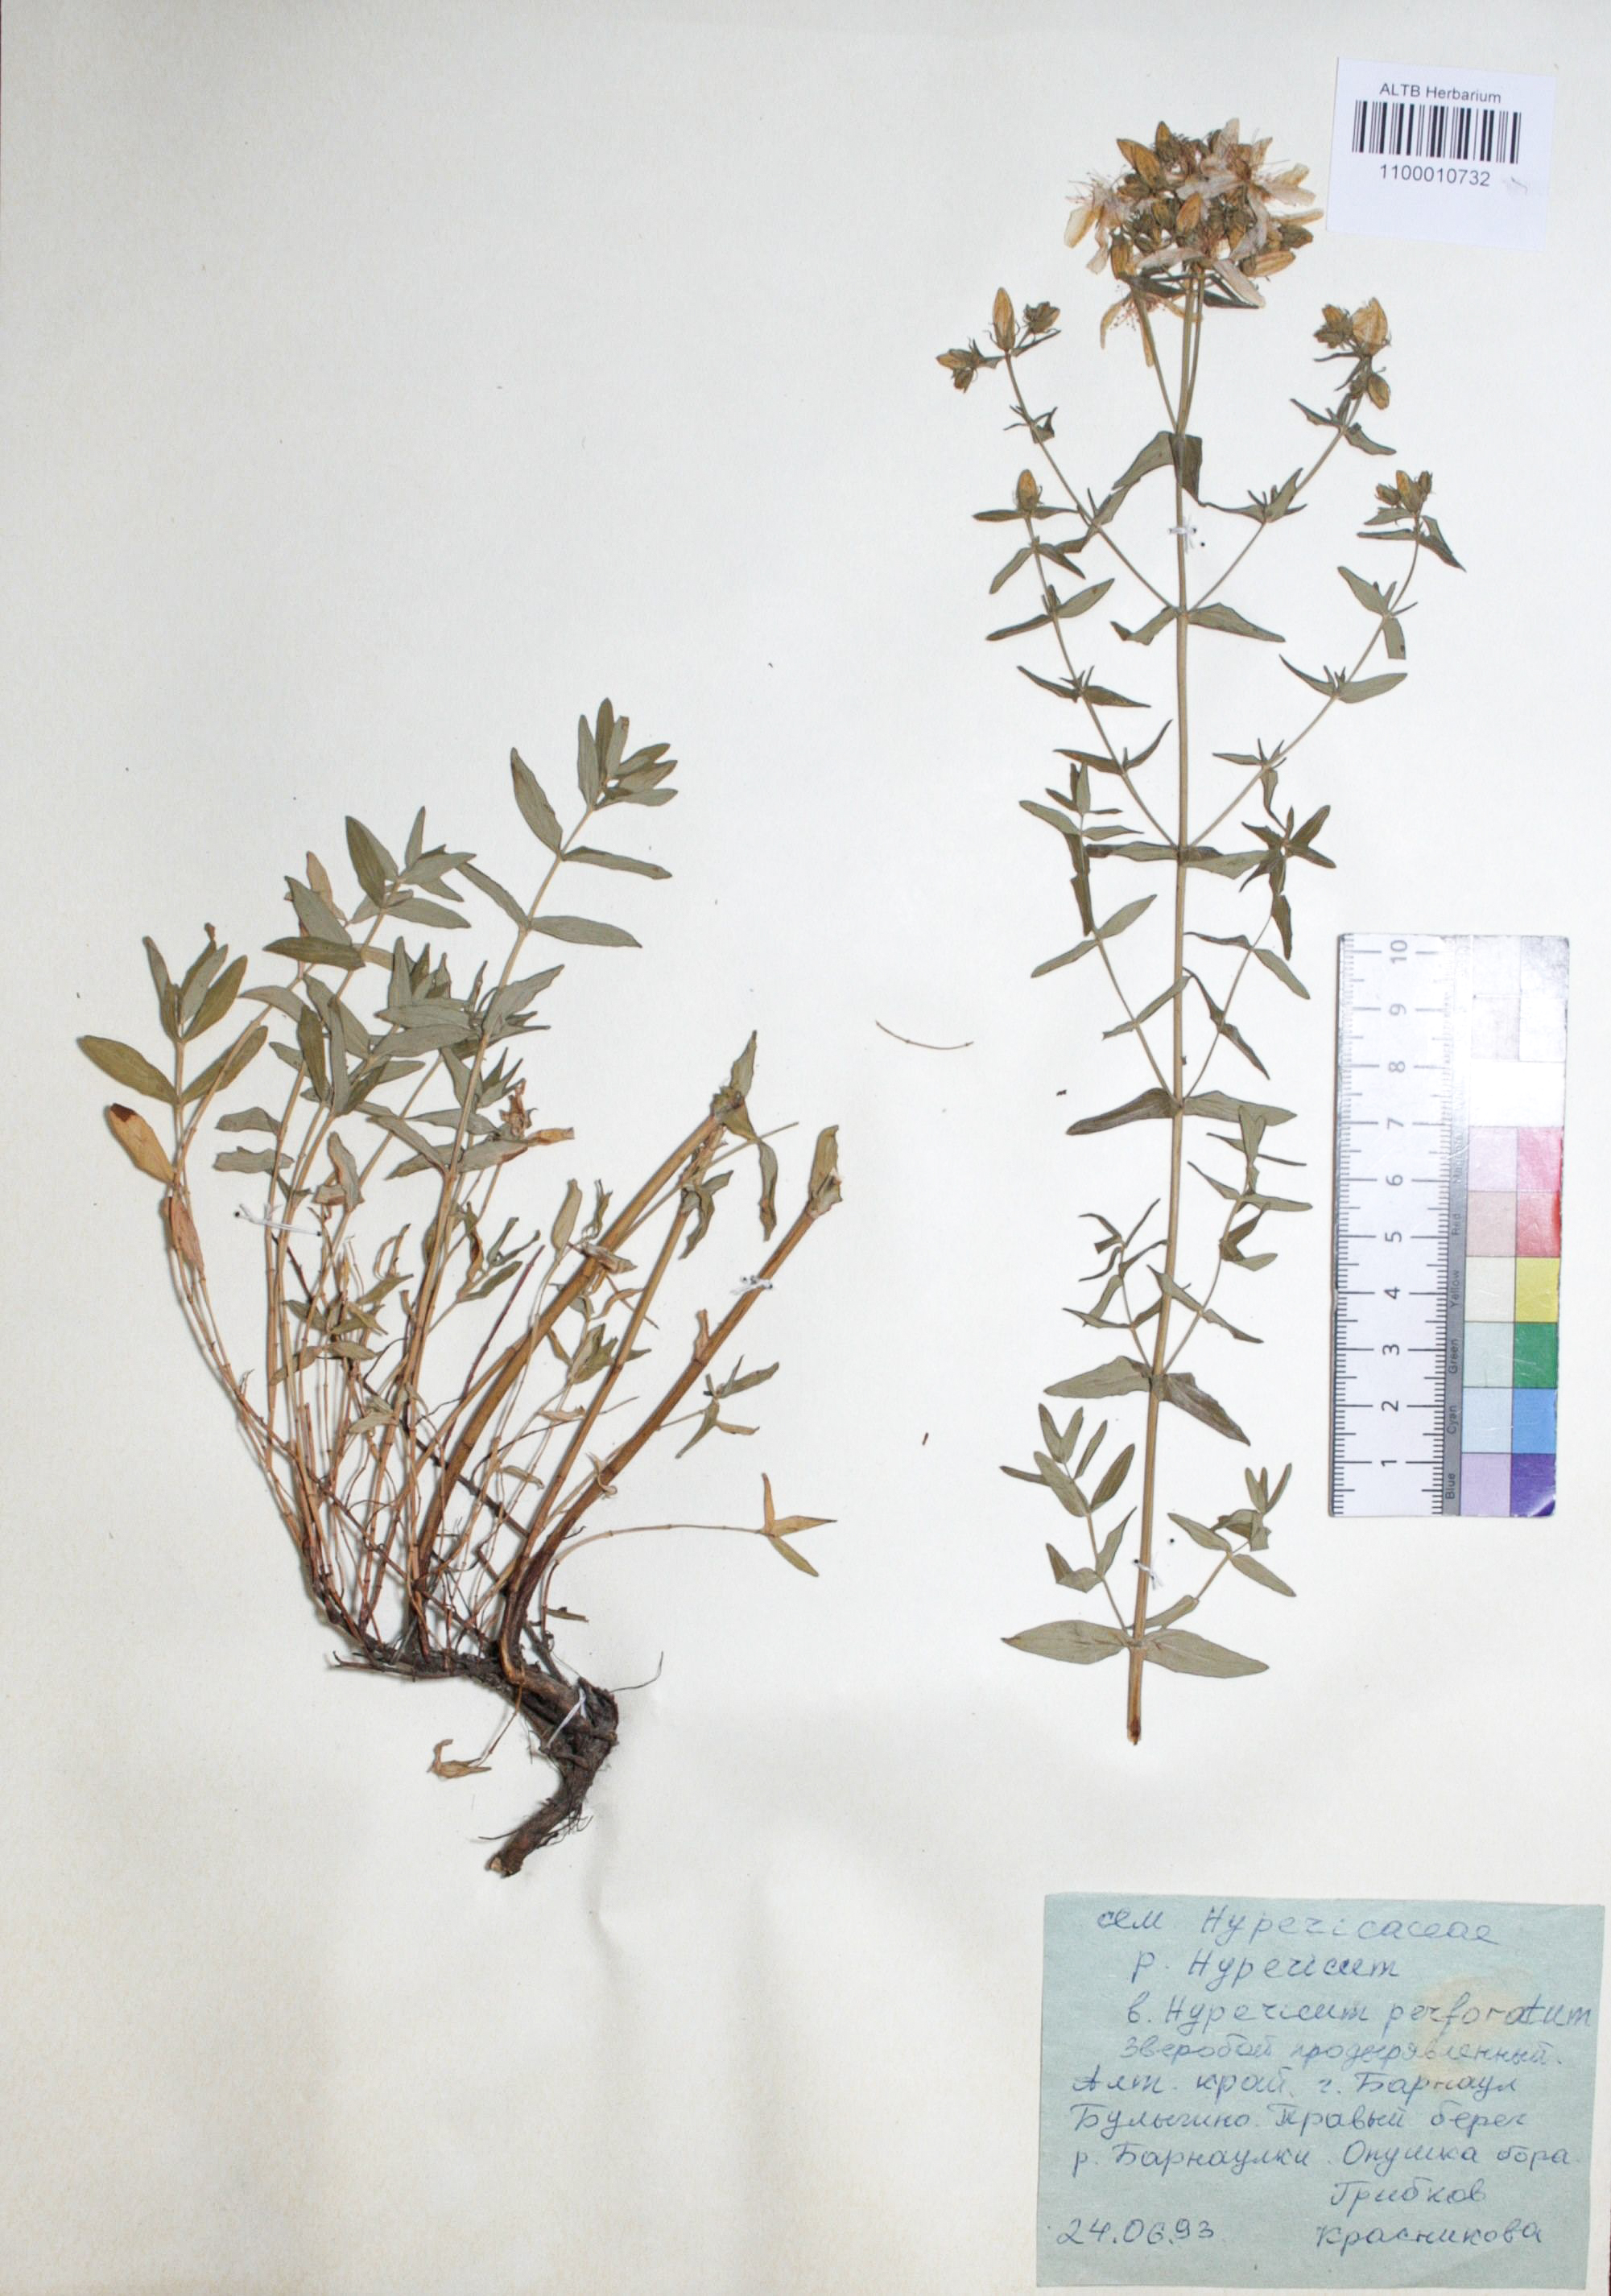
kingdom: Plantae
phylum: Tracheophyta
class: Magnoliopsida
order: Malpighiales
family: Hypericaceae
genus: Hypericum
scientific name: Hypericum perforatum
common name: Common st. johnswort
